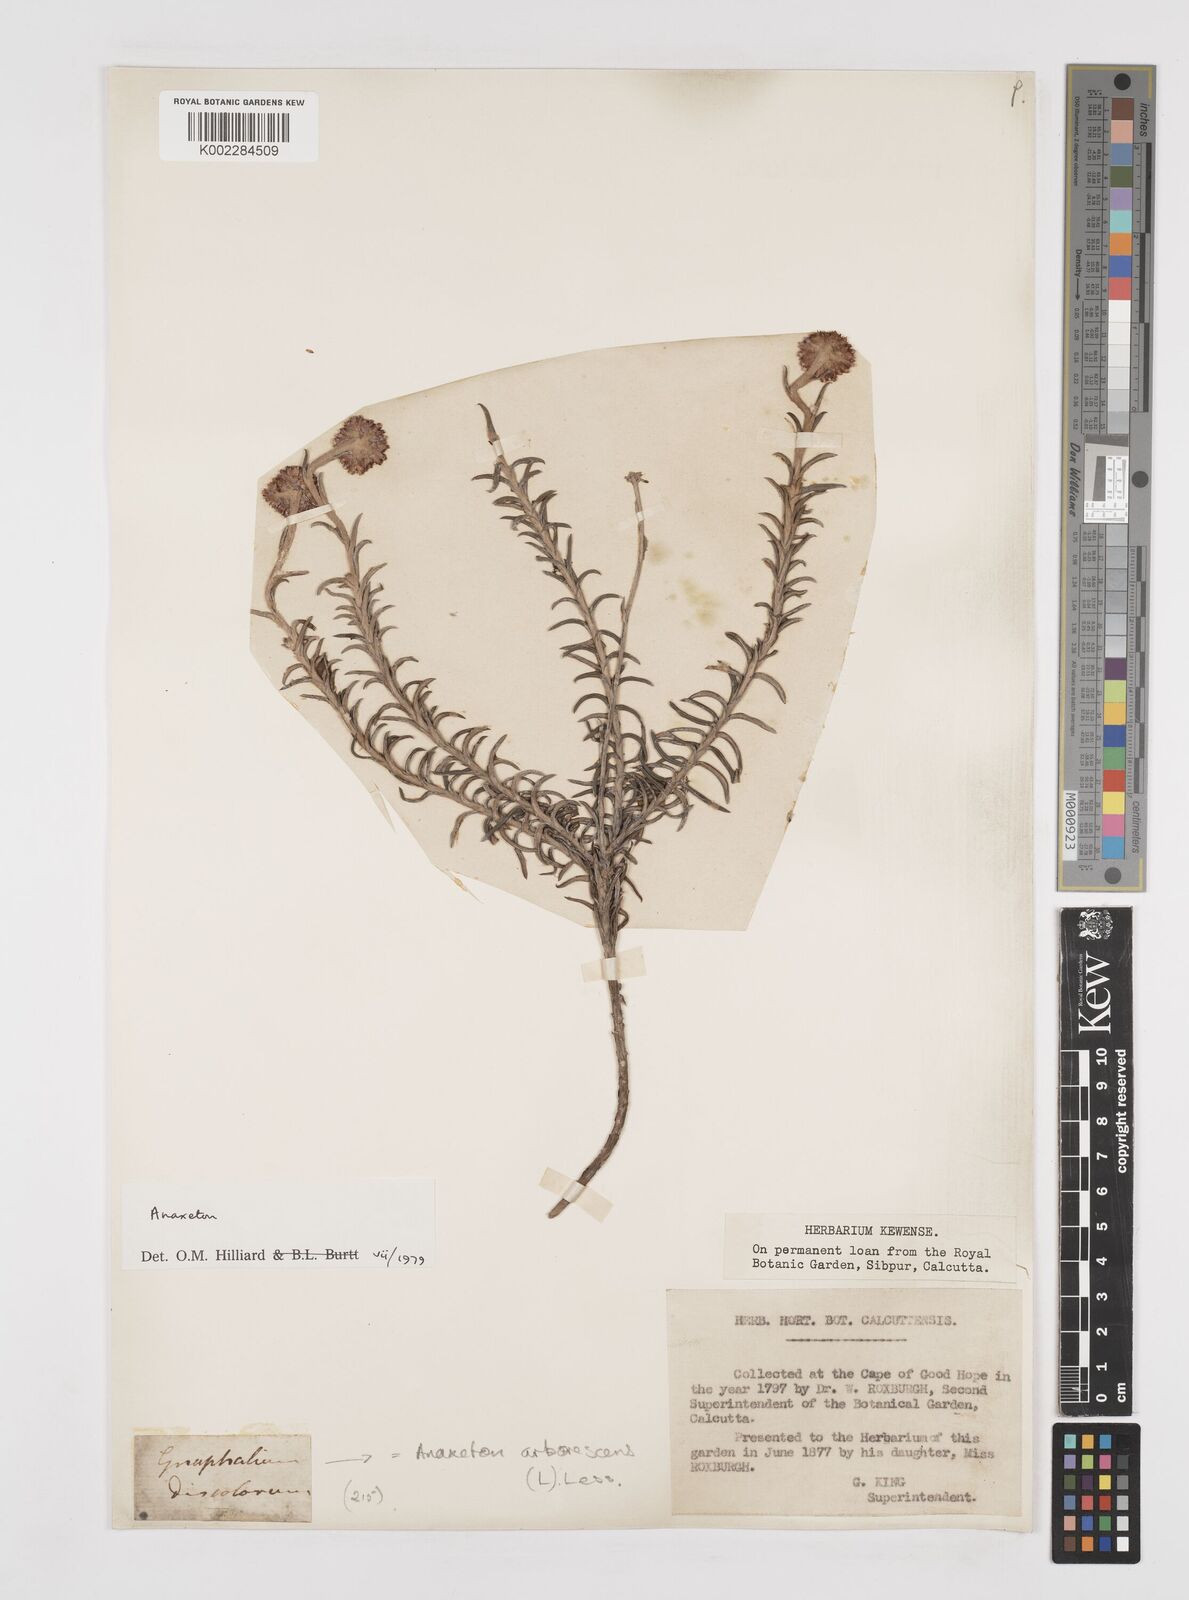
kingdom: Plantae
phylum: Tracheophyta
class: Magnoliopsida
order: Asterales
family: Asteraceae
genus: Anaxeton
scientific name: Anaxeton arborescens
